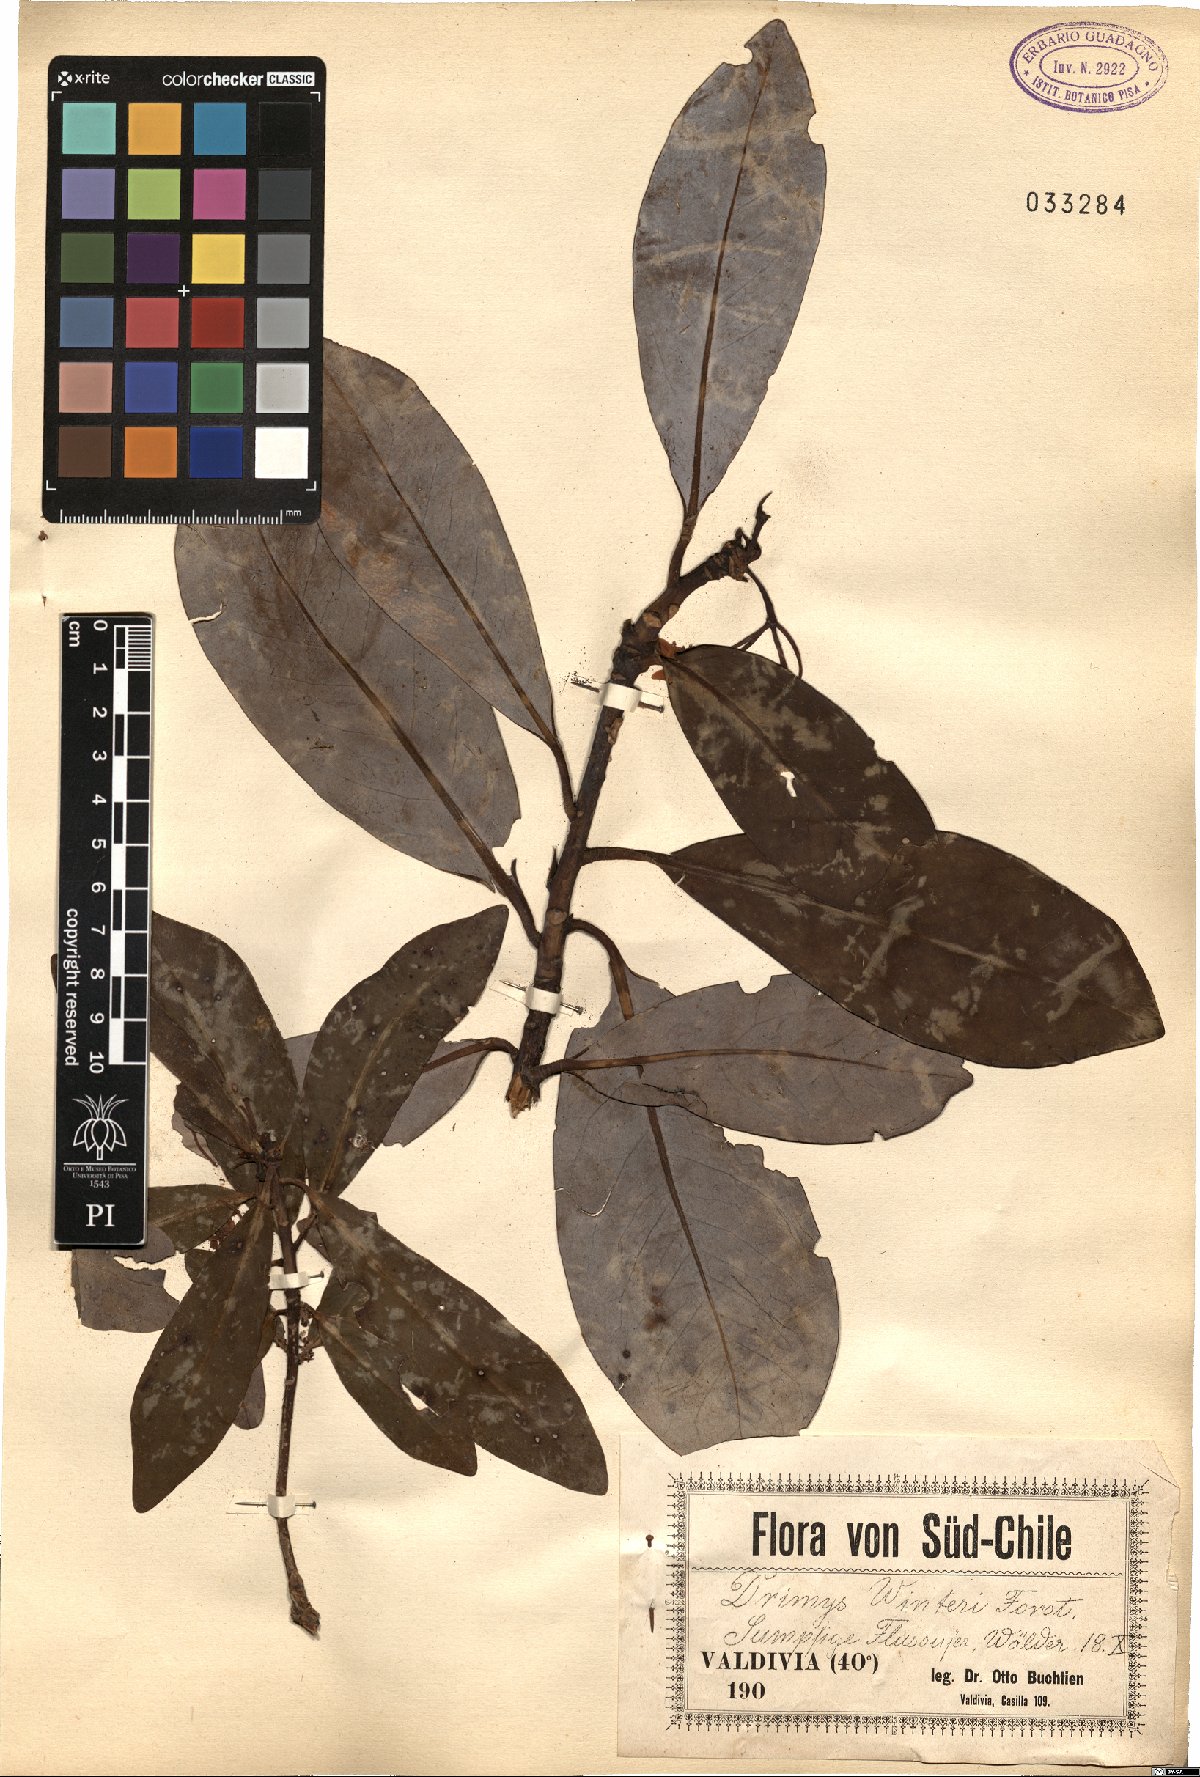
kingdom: Plantae
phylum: Tracheophyta
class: Magnoliopsida
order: Canellales
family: Winteraceae
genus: Drimys
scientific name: Drimys winteri
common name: Winter's-bark
